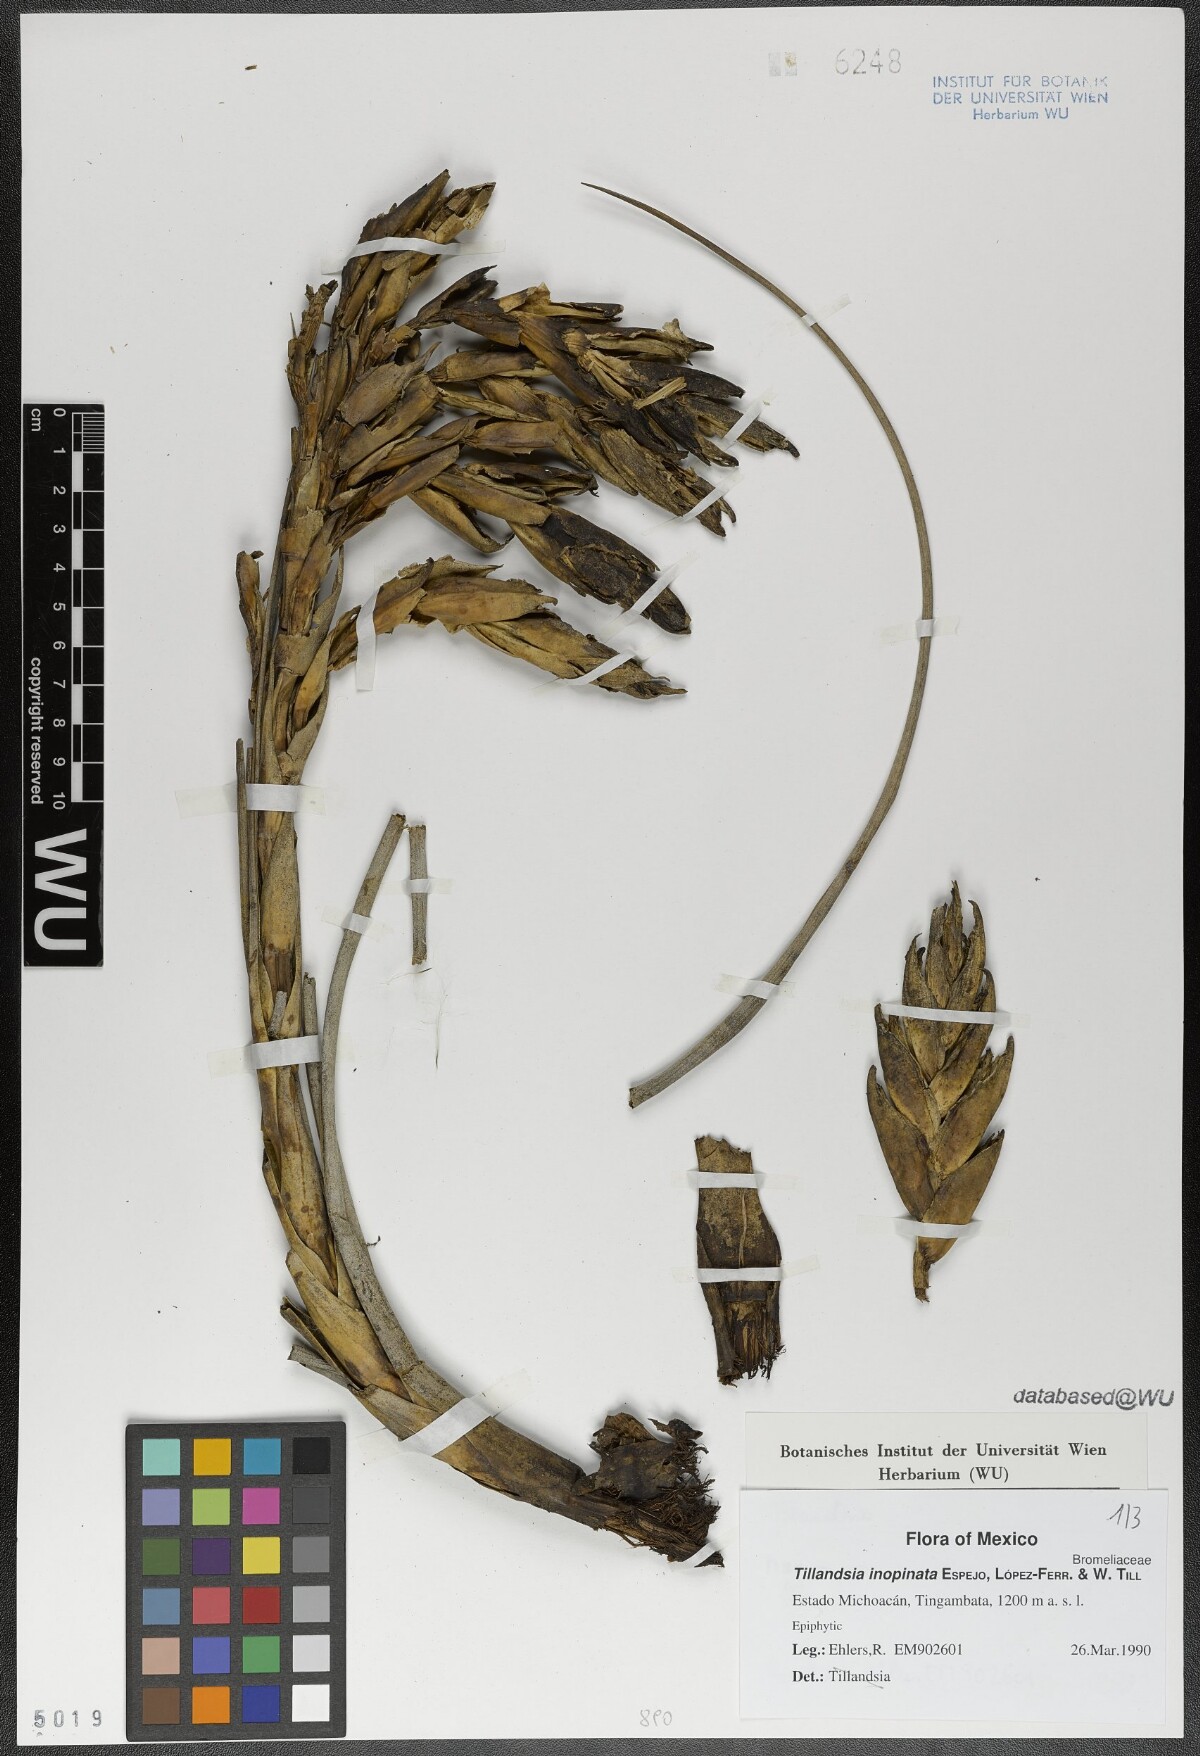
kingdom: Plantae
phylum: Tracheophyta
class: Liliopsida
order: Poales
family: Bromeliaceae
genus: Tillandsia
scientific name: Tillandsia inopinata
